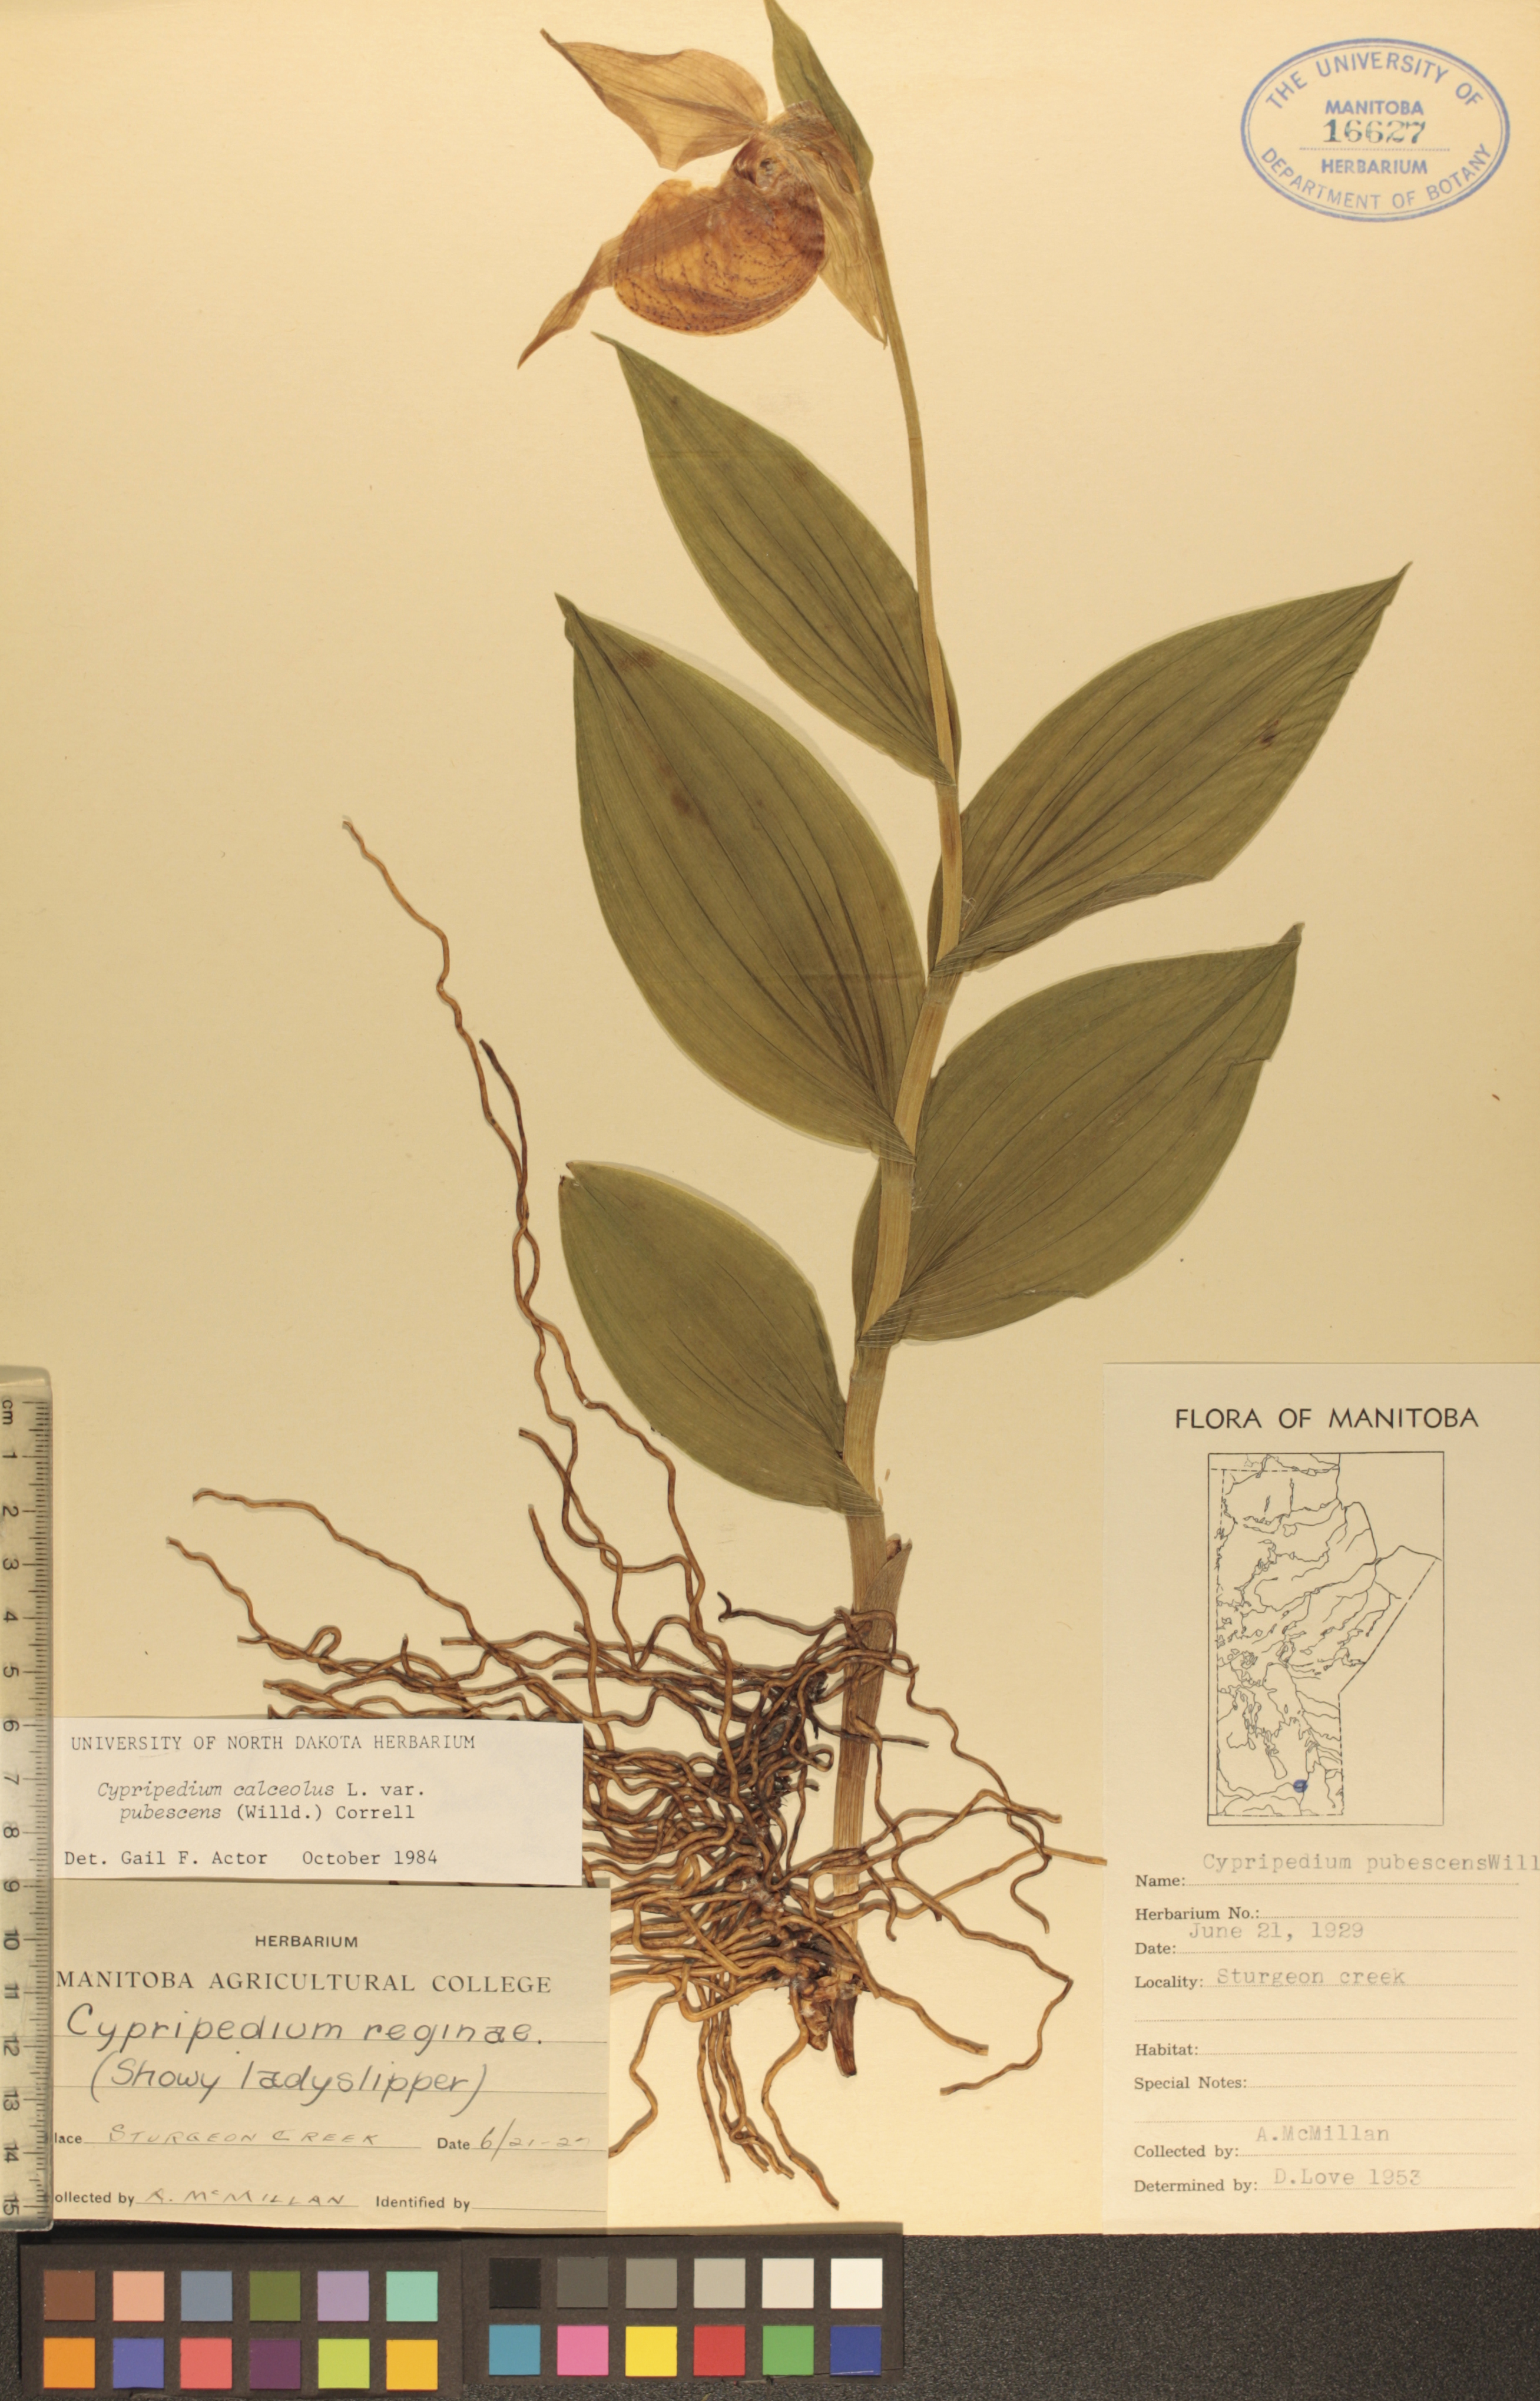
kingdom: Plantae
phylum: Tracheophyta
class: Liliopsida
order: Asparagales
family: Orchidaceae
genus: Cypripedium
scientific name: Cypripedium parviflorum
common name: American yellow lady's-slipper
